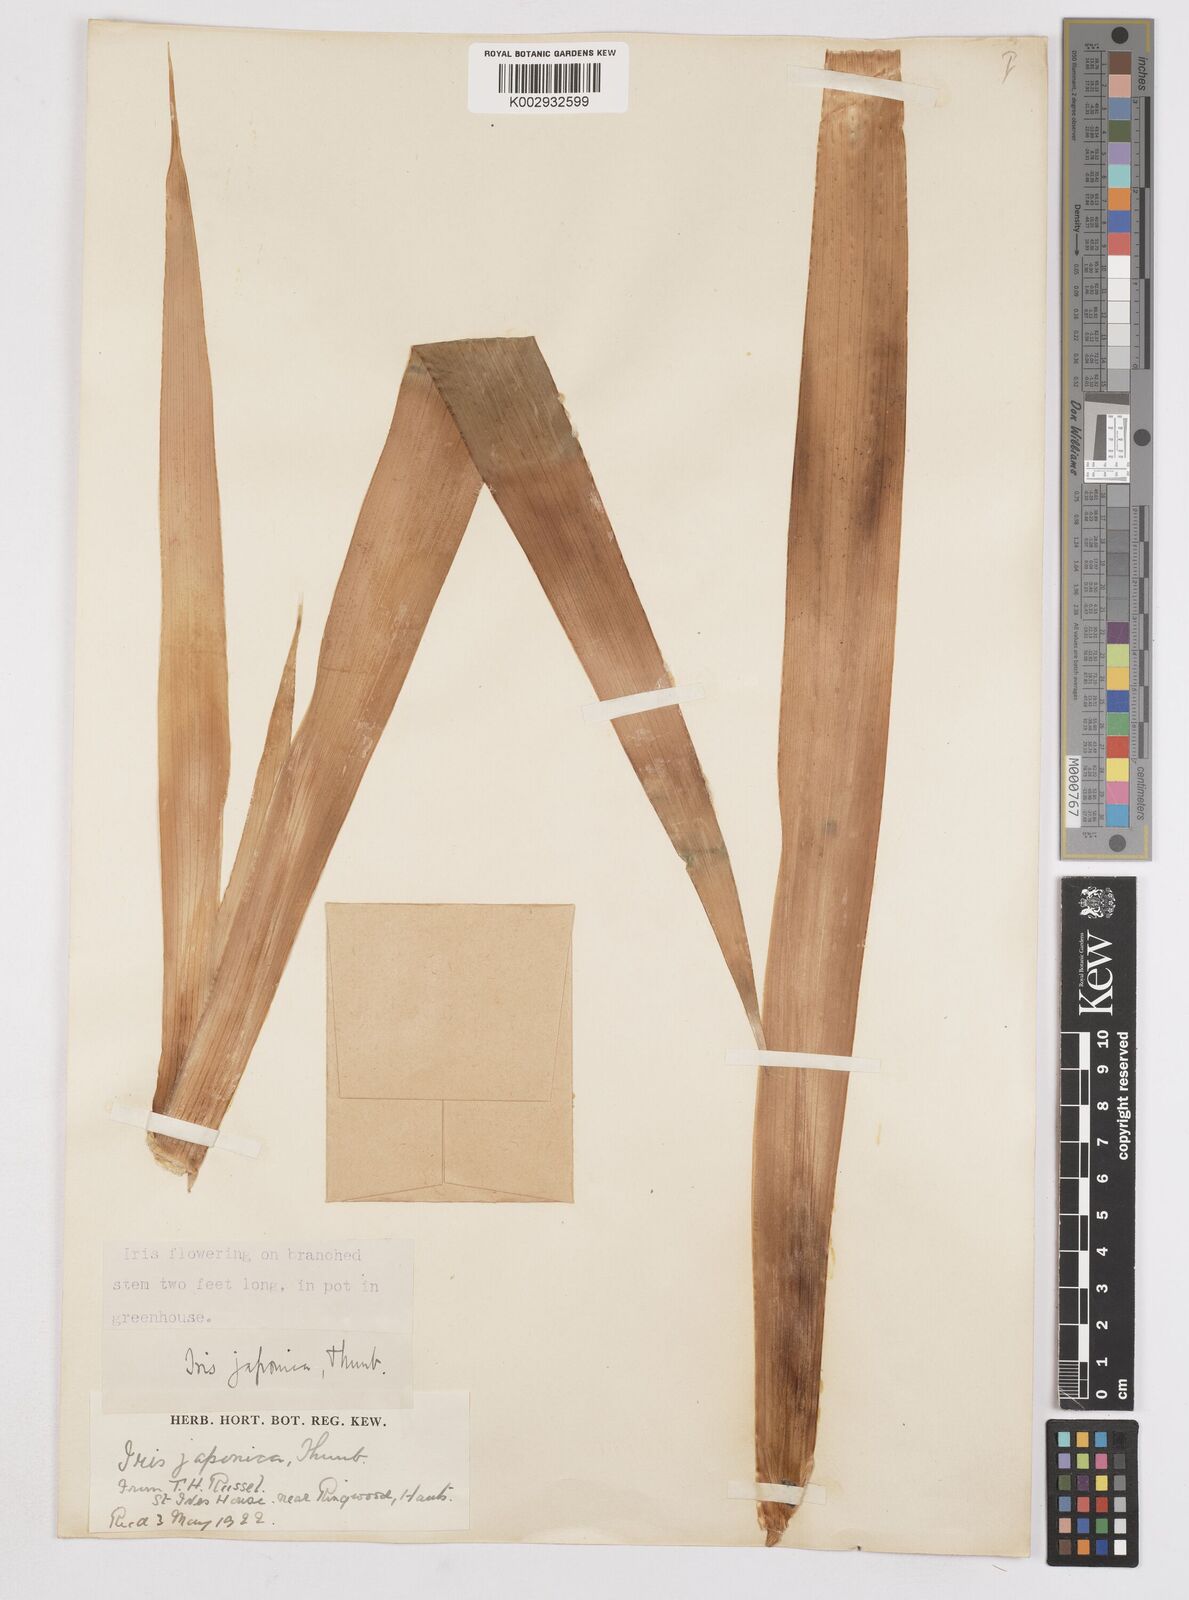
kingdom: Plantae
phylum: Tracheophyta
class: Liliopsida
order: Asparagales
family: Iridaceae
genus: Iris
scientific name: Iris wattii
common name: Fan-shape iris
